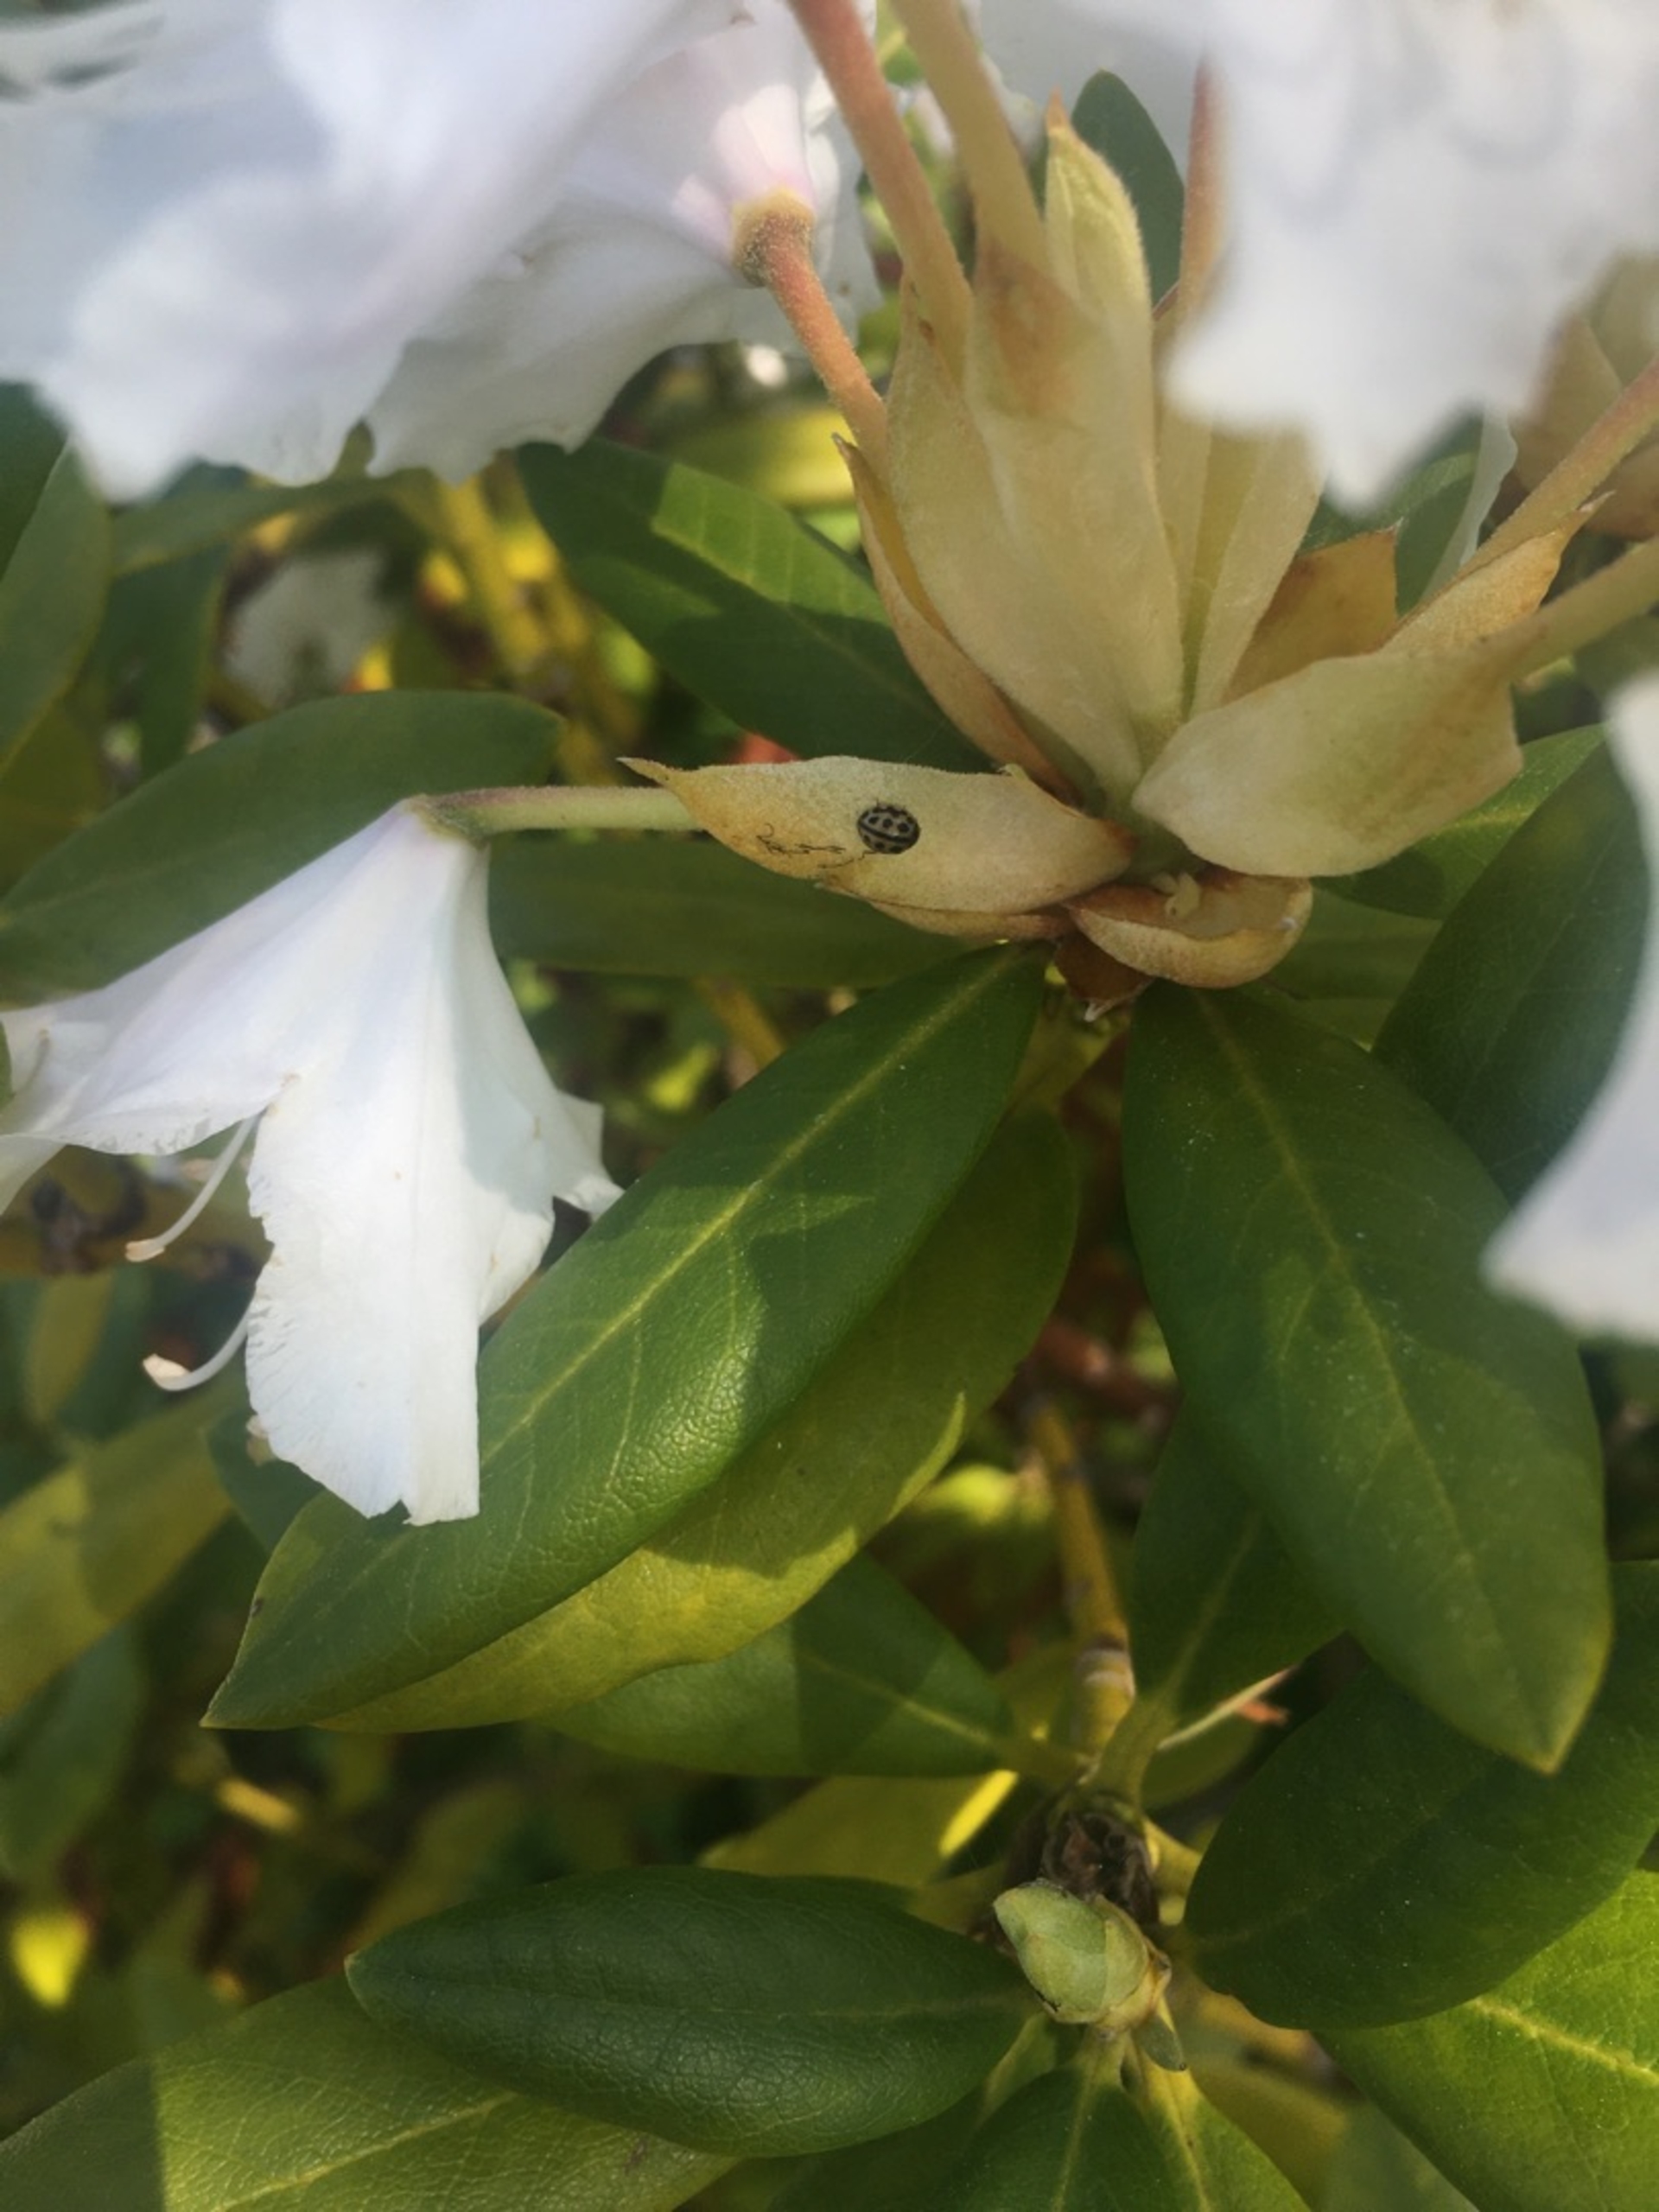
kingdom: Animalia
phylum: Arthropoda
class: Insecta
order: Coleoptera
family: Coccinellidae
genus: Tytthaspis
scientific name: Tytthaspis sedecimpunctata
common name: Sekstenprikket mariehøne
